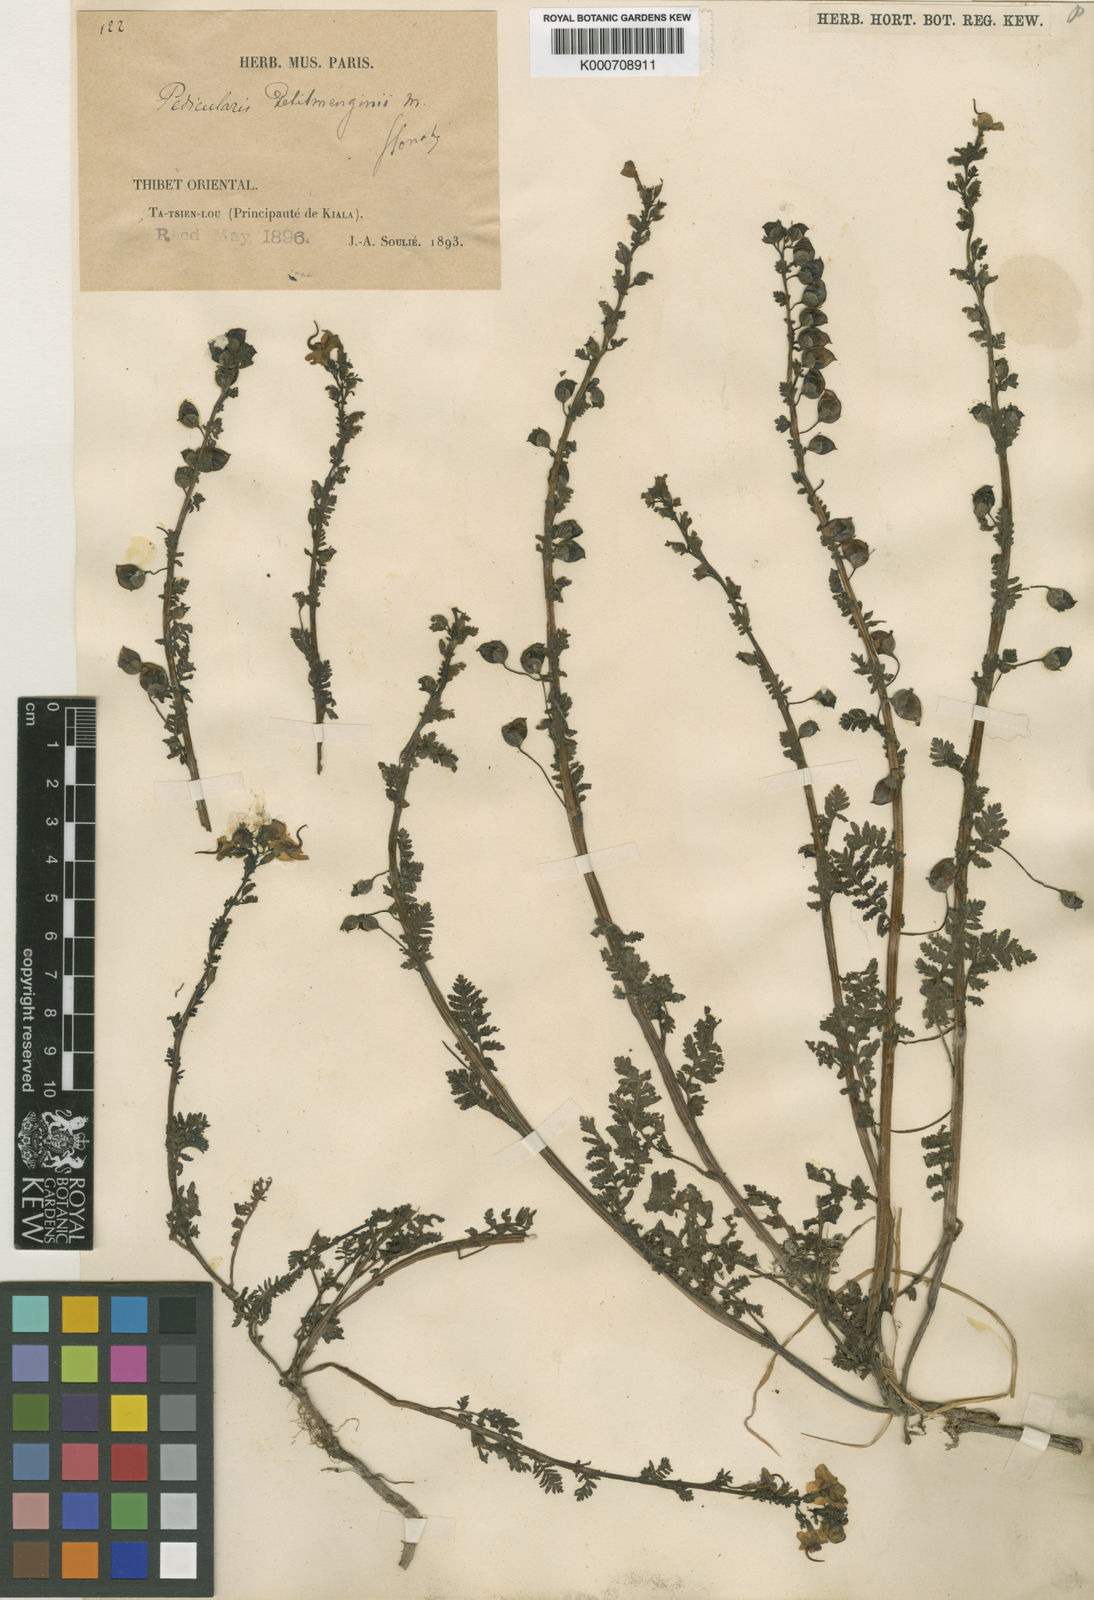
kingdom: Plantae
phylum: Tracheophyta
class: Magnoliopsida
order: Lamiales
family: Orobanchaceae
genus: Pedicularis
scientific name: Pedicularis petitmenginii
